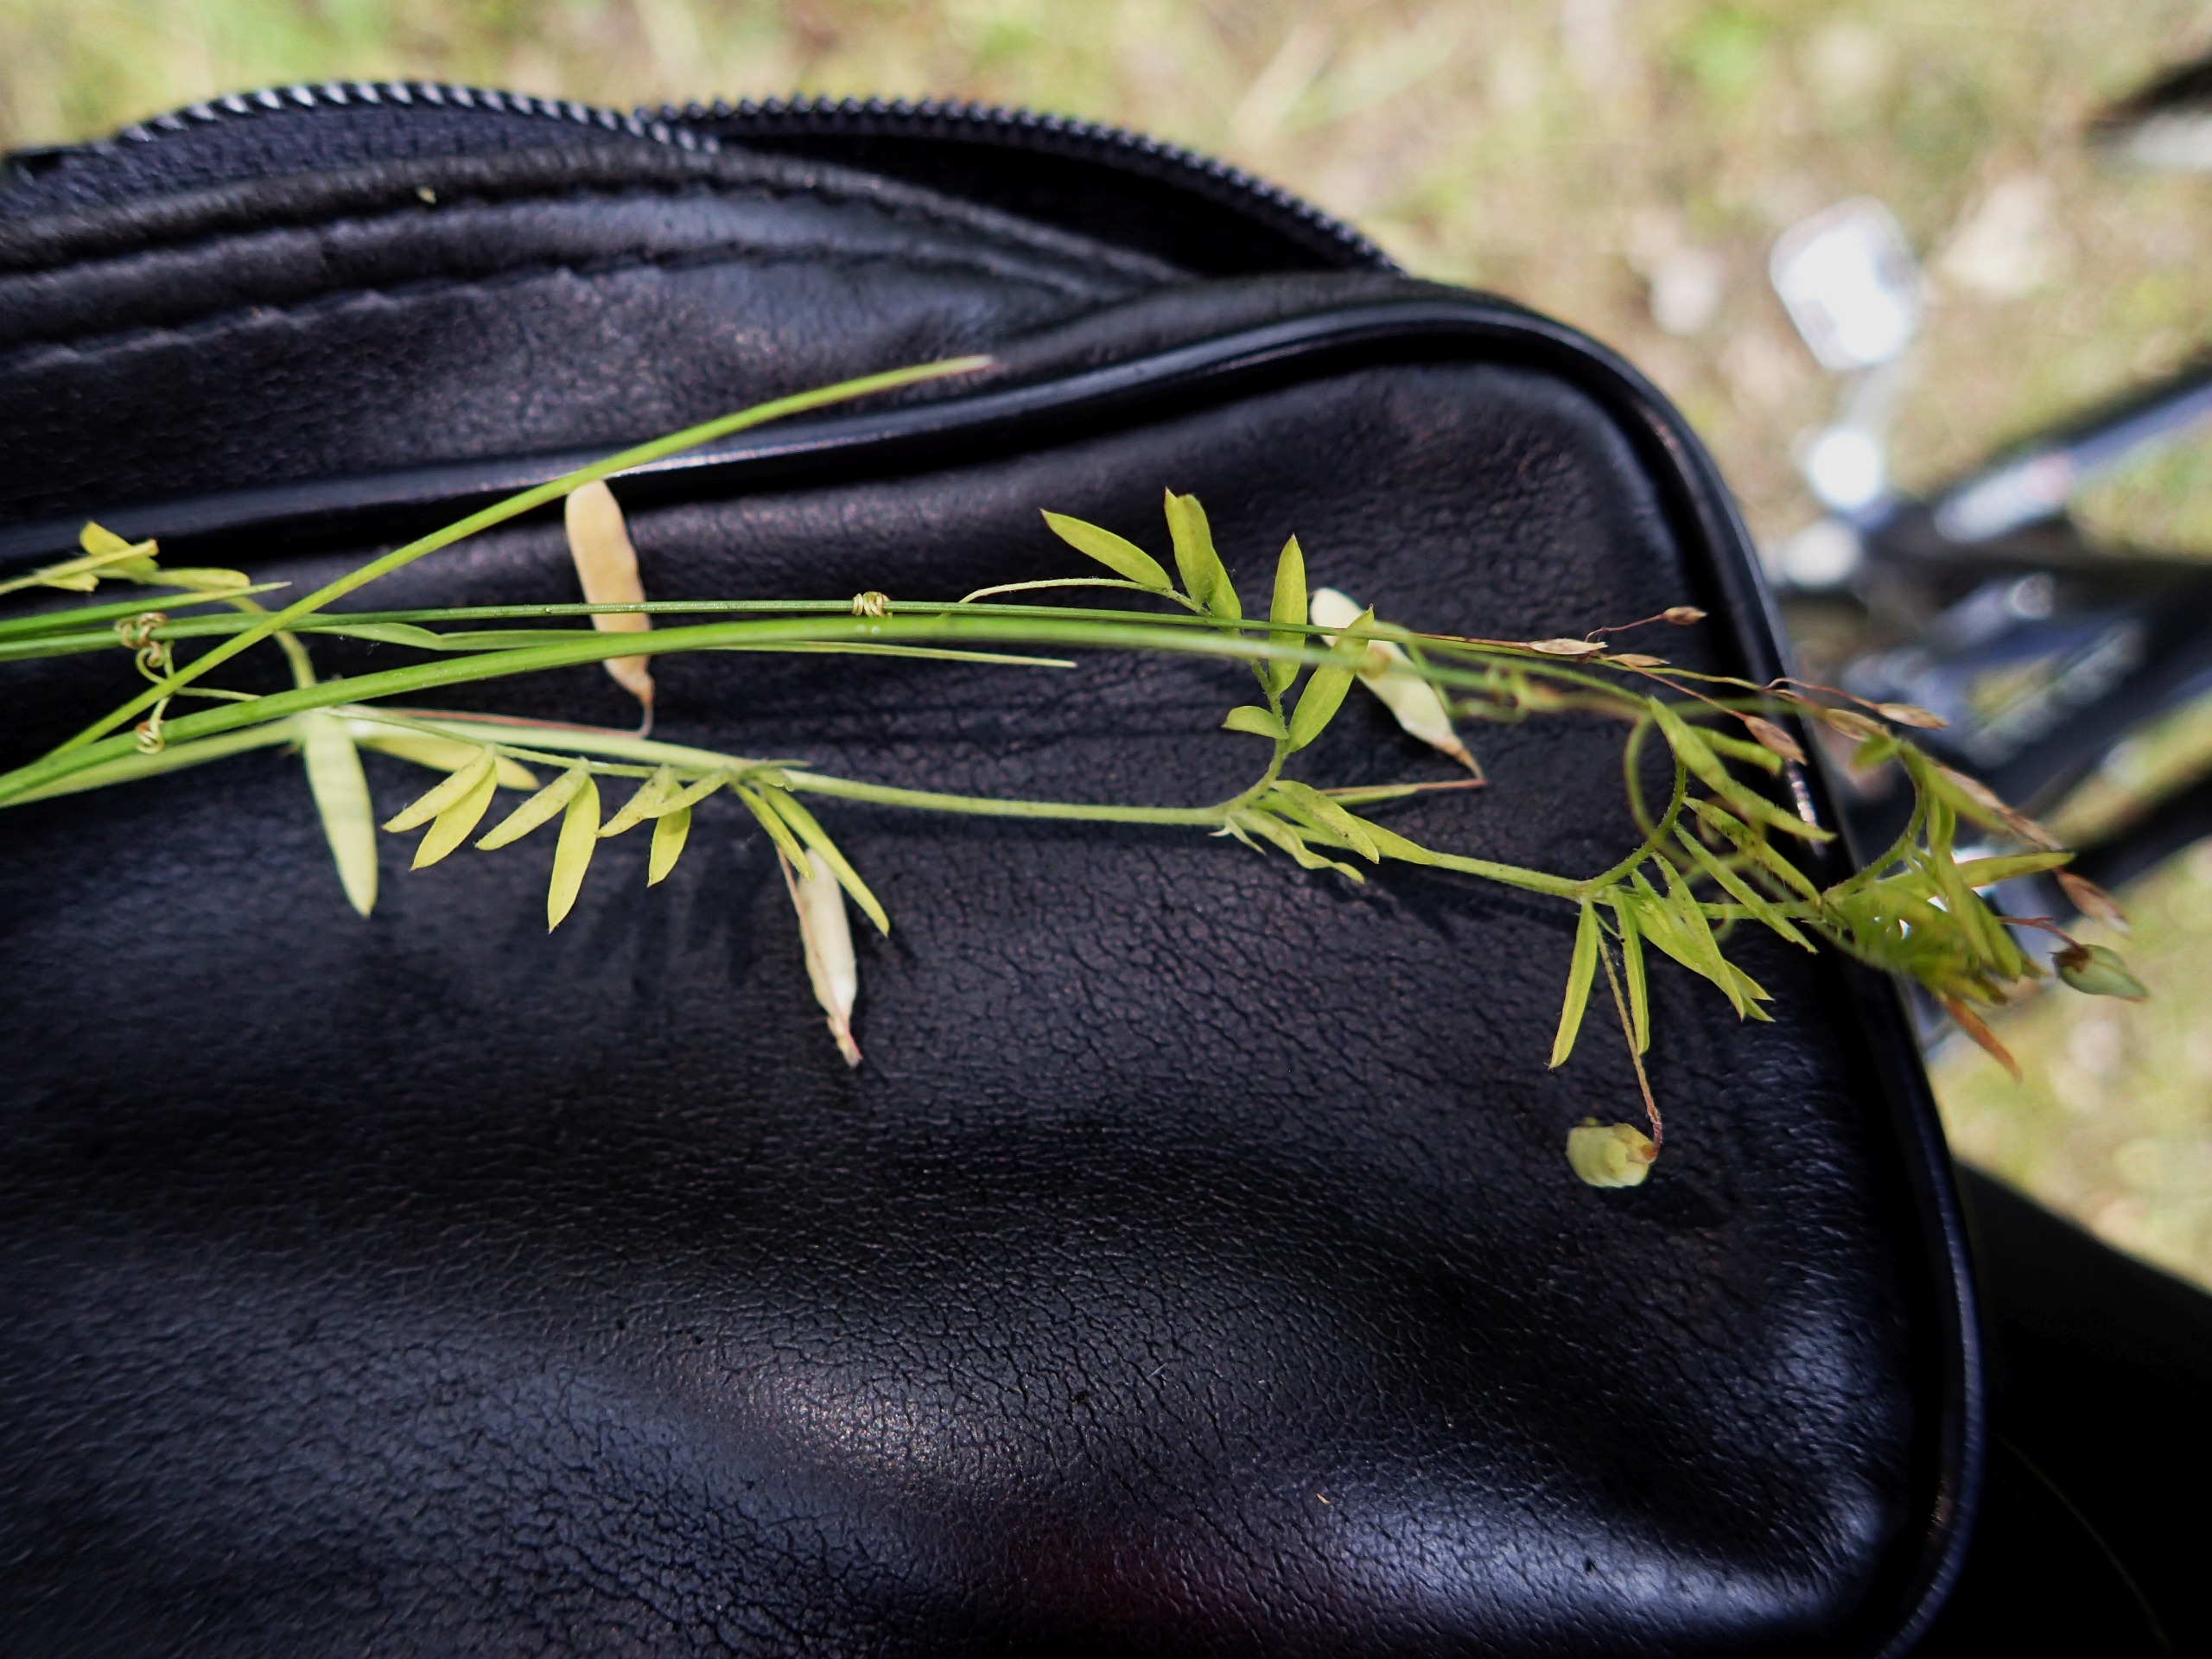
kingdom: Plantae
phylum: Tracheophyta
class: Magnoliopsida
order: Fabales
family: Fabaceae
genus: Vicia
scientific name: Vicia tetrasperma
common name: Tadder-vikke
